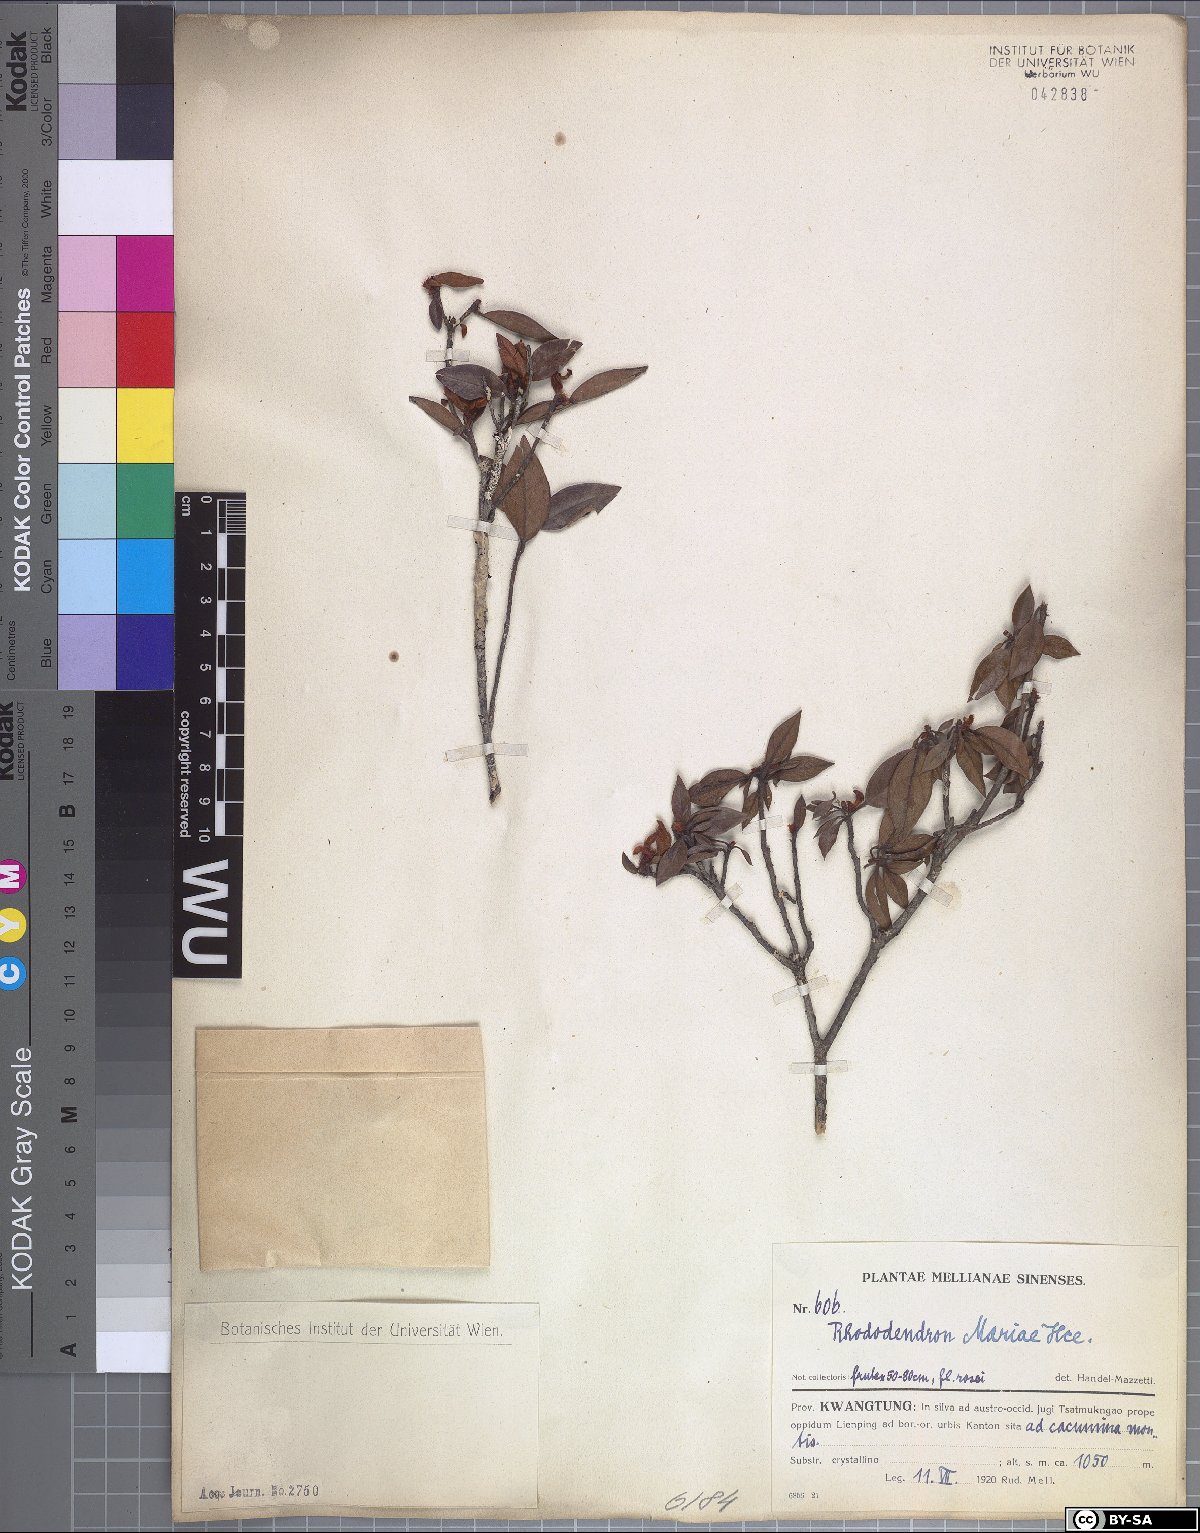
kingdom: Plantae
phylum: Tracheophyta
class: Magnoliopsida
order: Ericales
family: Ericaceae
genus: Rhododendron
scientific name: Rhododendron mariae
